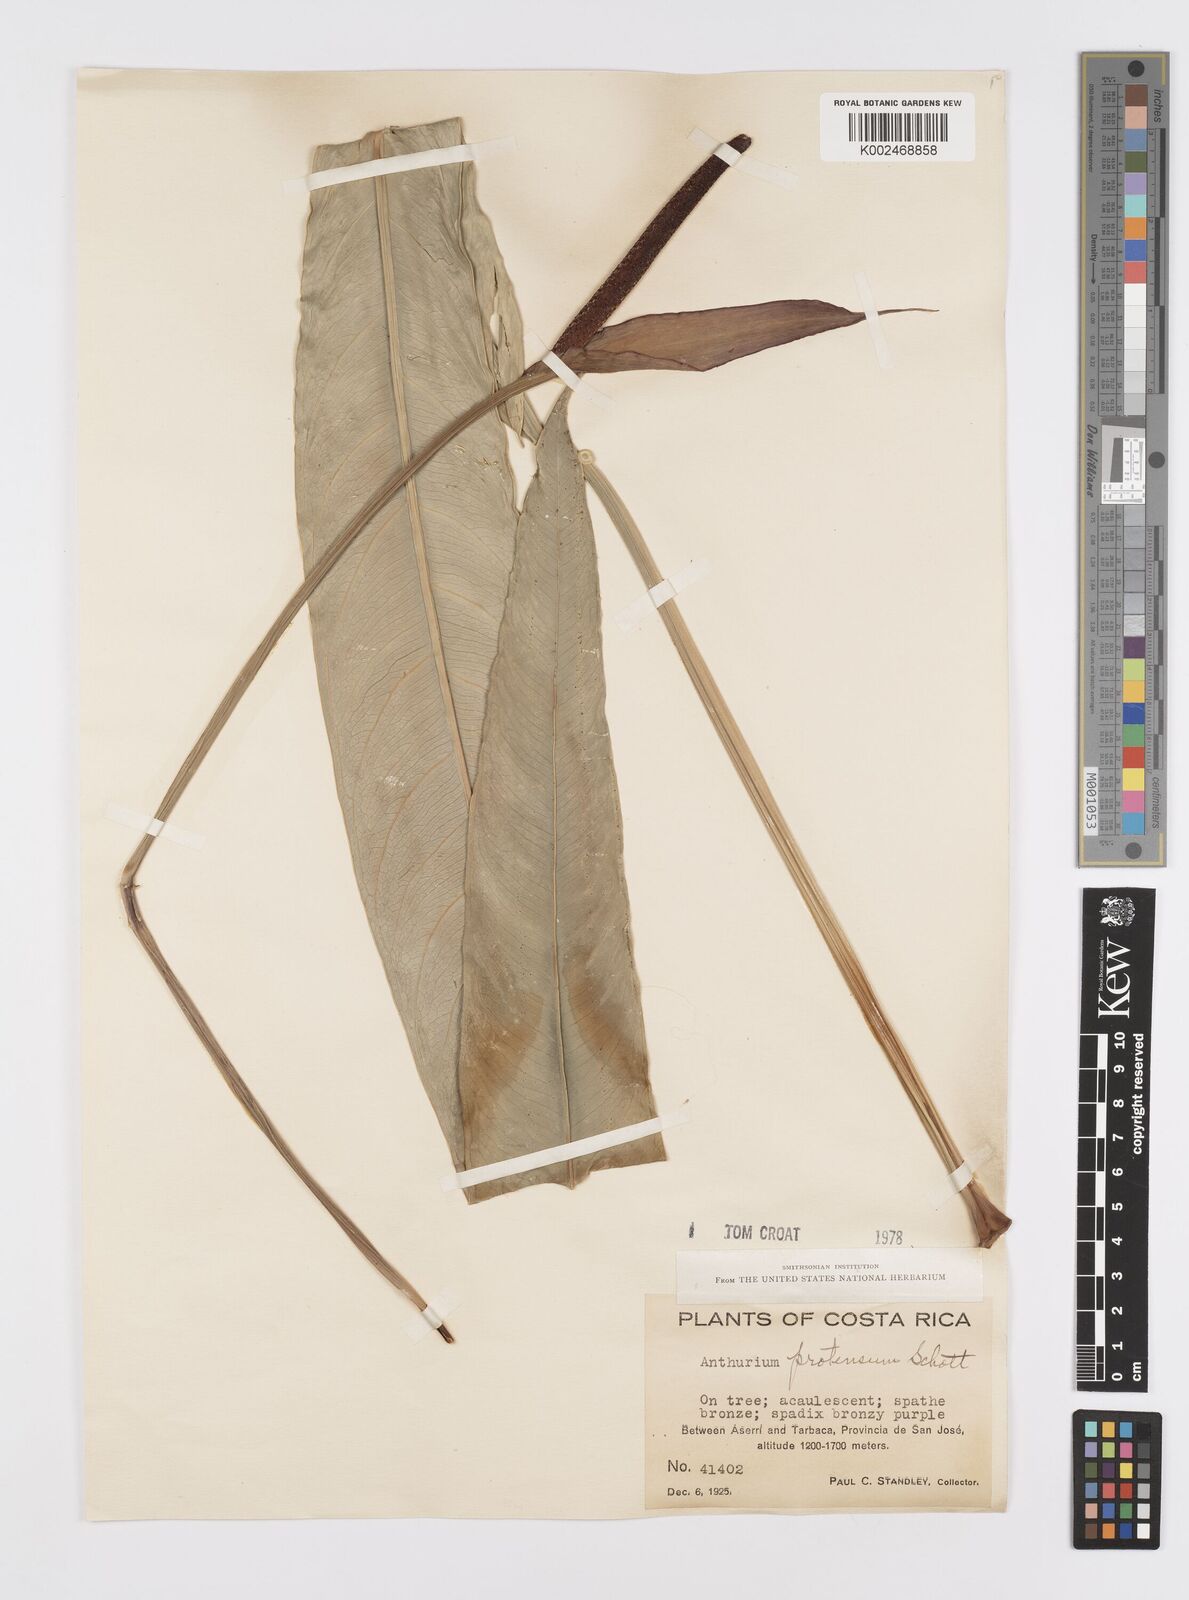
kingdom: Plantae
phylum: Tracheophyta
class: Liliopsida
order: Alismatales
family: Araceae
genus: Anthurium
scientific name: Anthurium protensum
